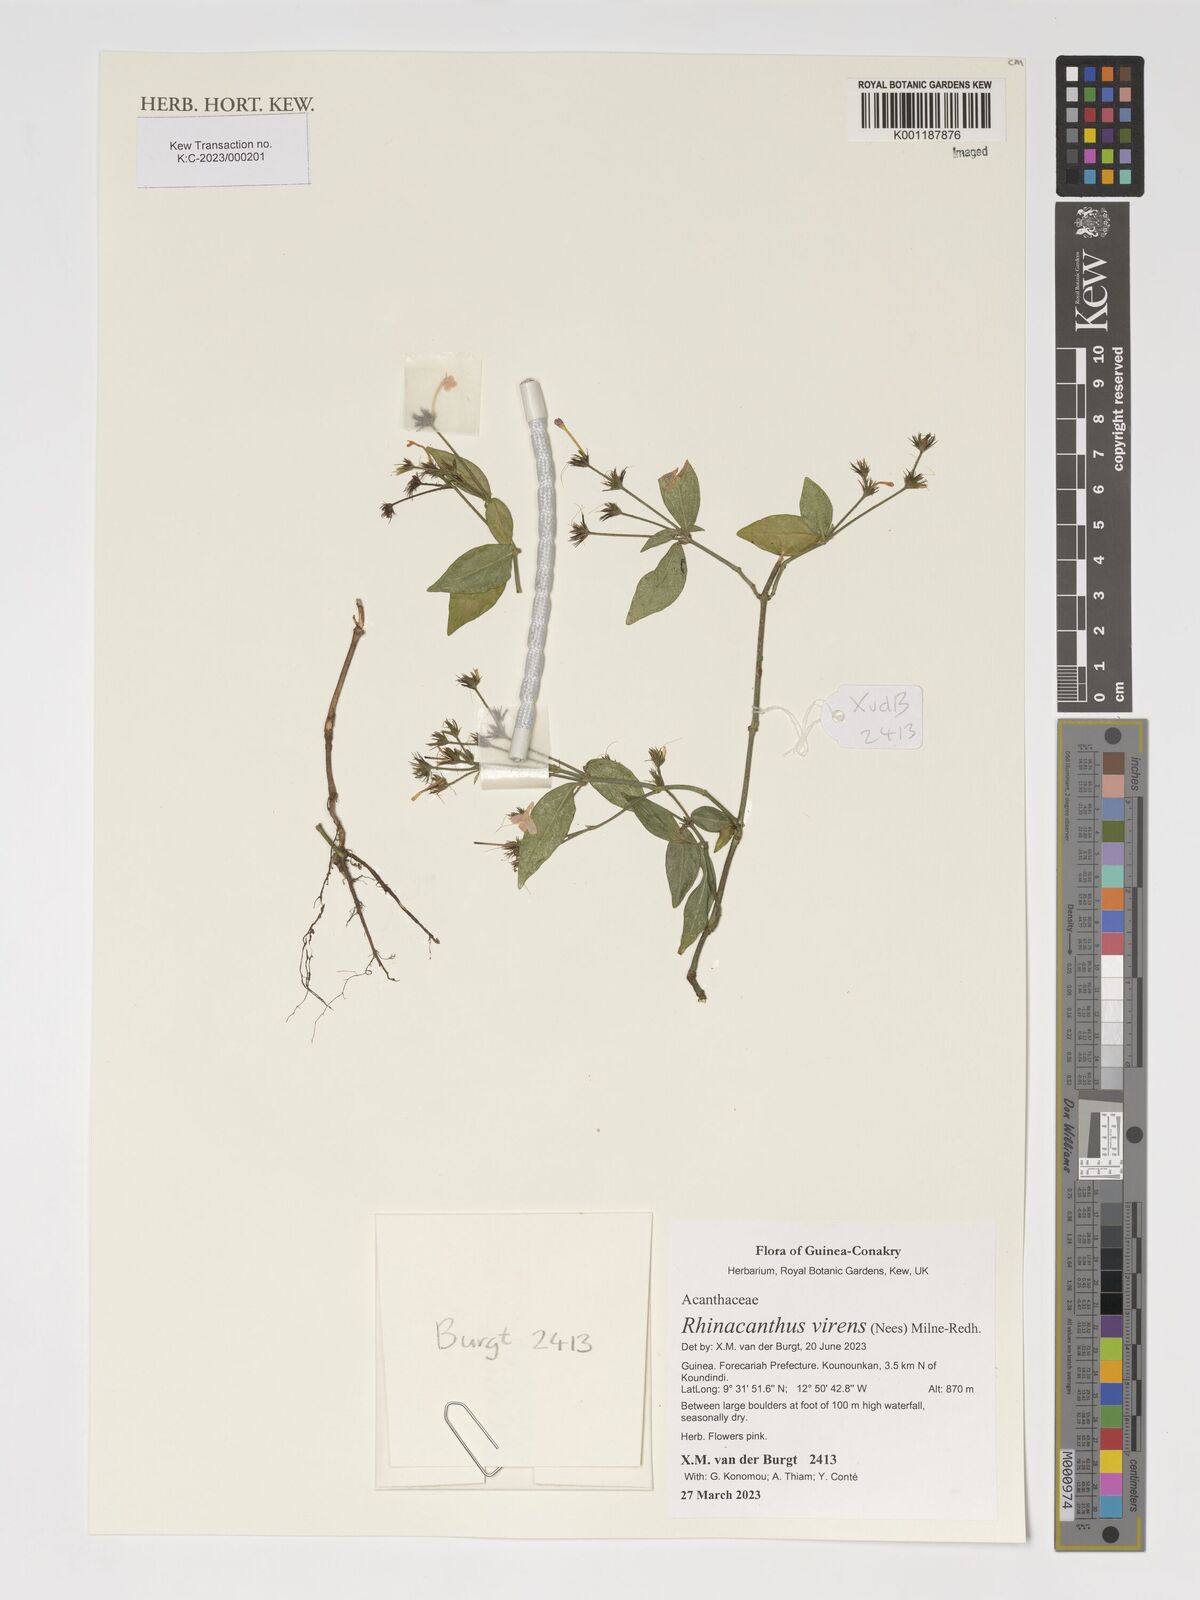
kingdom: Plantae
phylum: Tracheophyta
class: Magnoliopsida
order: Lamiales
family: Acanthaceae
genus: Rhinacanthus
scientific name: Rhinacanthus virens
